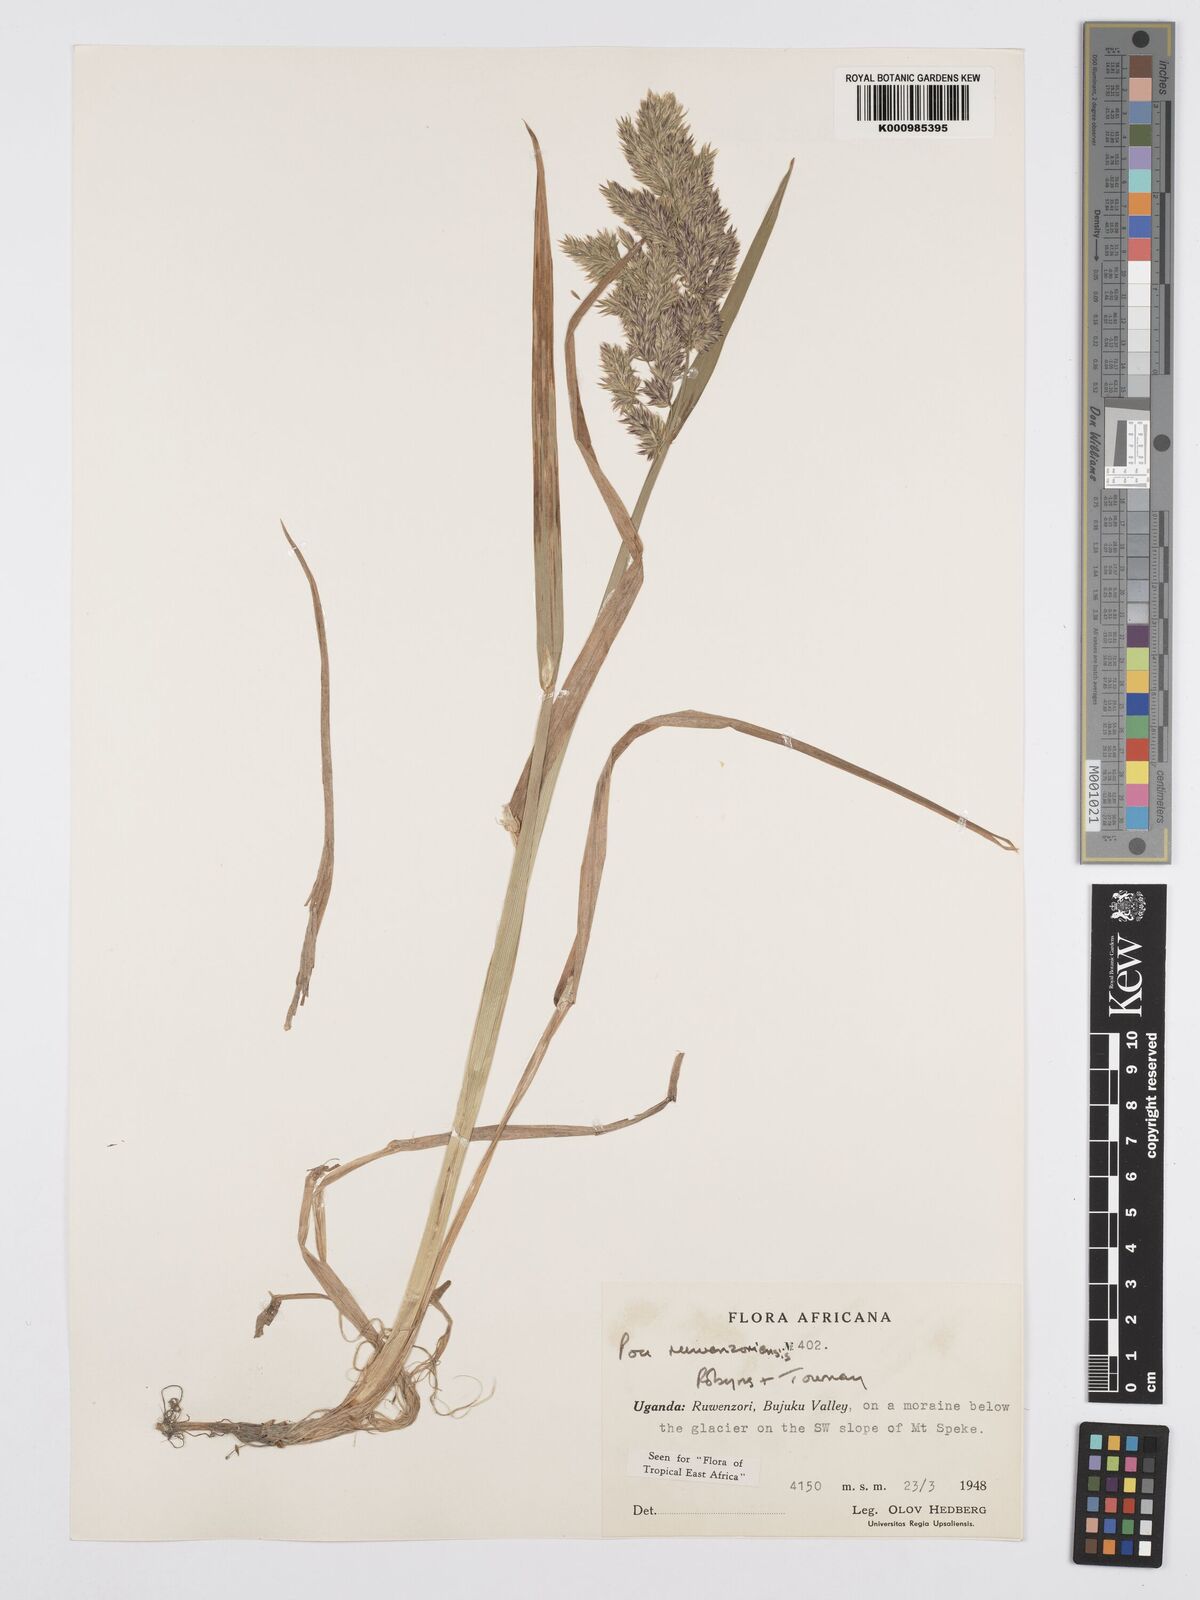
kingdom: Plantae
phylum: Tracheophyta
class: Liliopsida
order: Poales
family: Poaceae
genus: Poa
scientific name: Poa ruwenzoriensis
